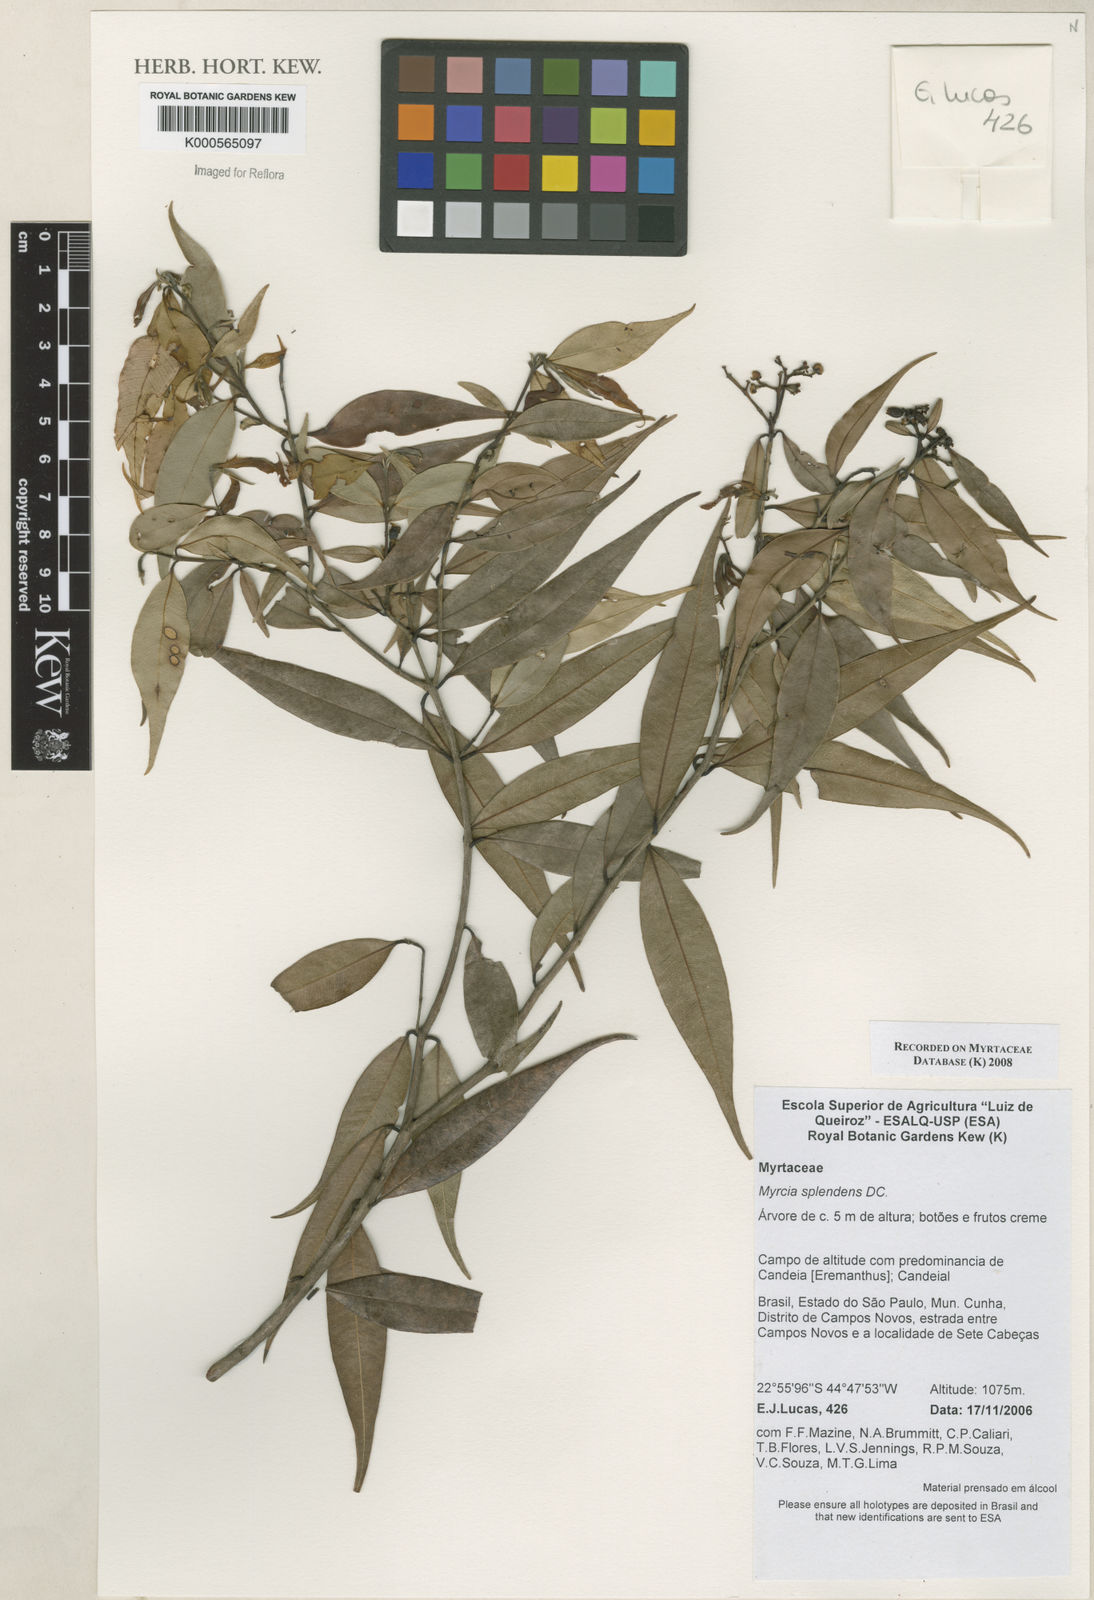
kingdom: Plantae
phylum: Tracheophyta
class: Magnoliopsida
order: Myrtales
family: Myrtaceae
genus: Myrcia
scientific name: Myrcia splendens
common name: Surinam cherry
